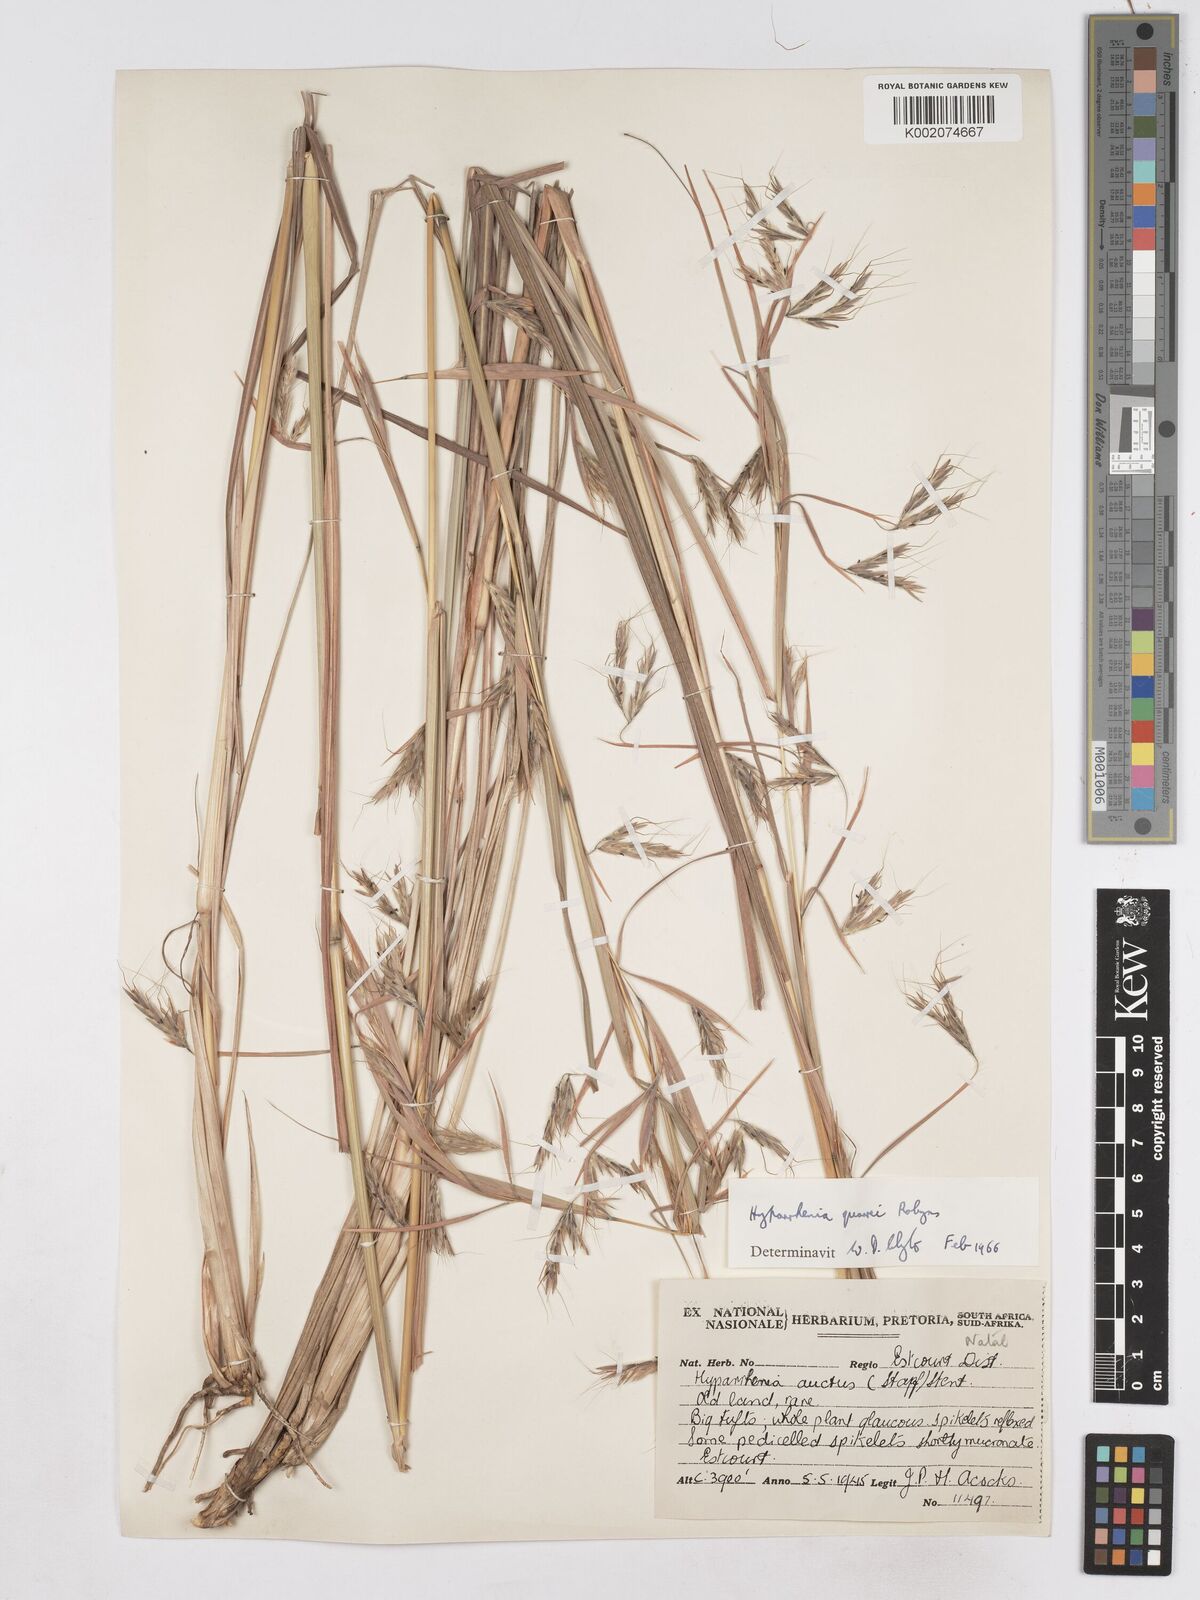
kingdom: Plantae
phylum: Tracheophyta
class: Liliopsida
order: Poales
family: Poaceae
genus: Hyparrhenia
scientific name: Hyparrhenia quarrei
